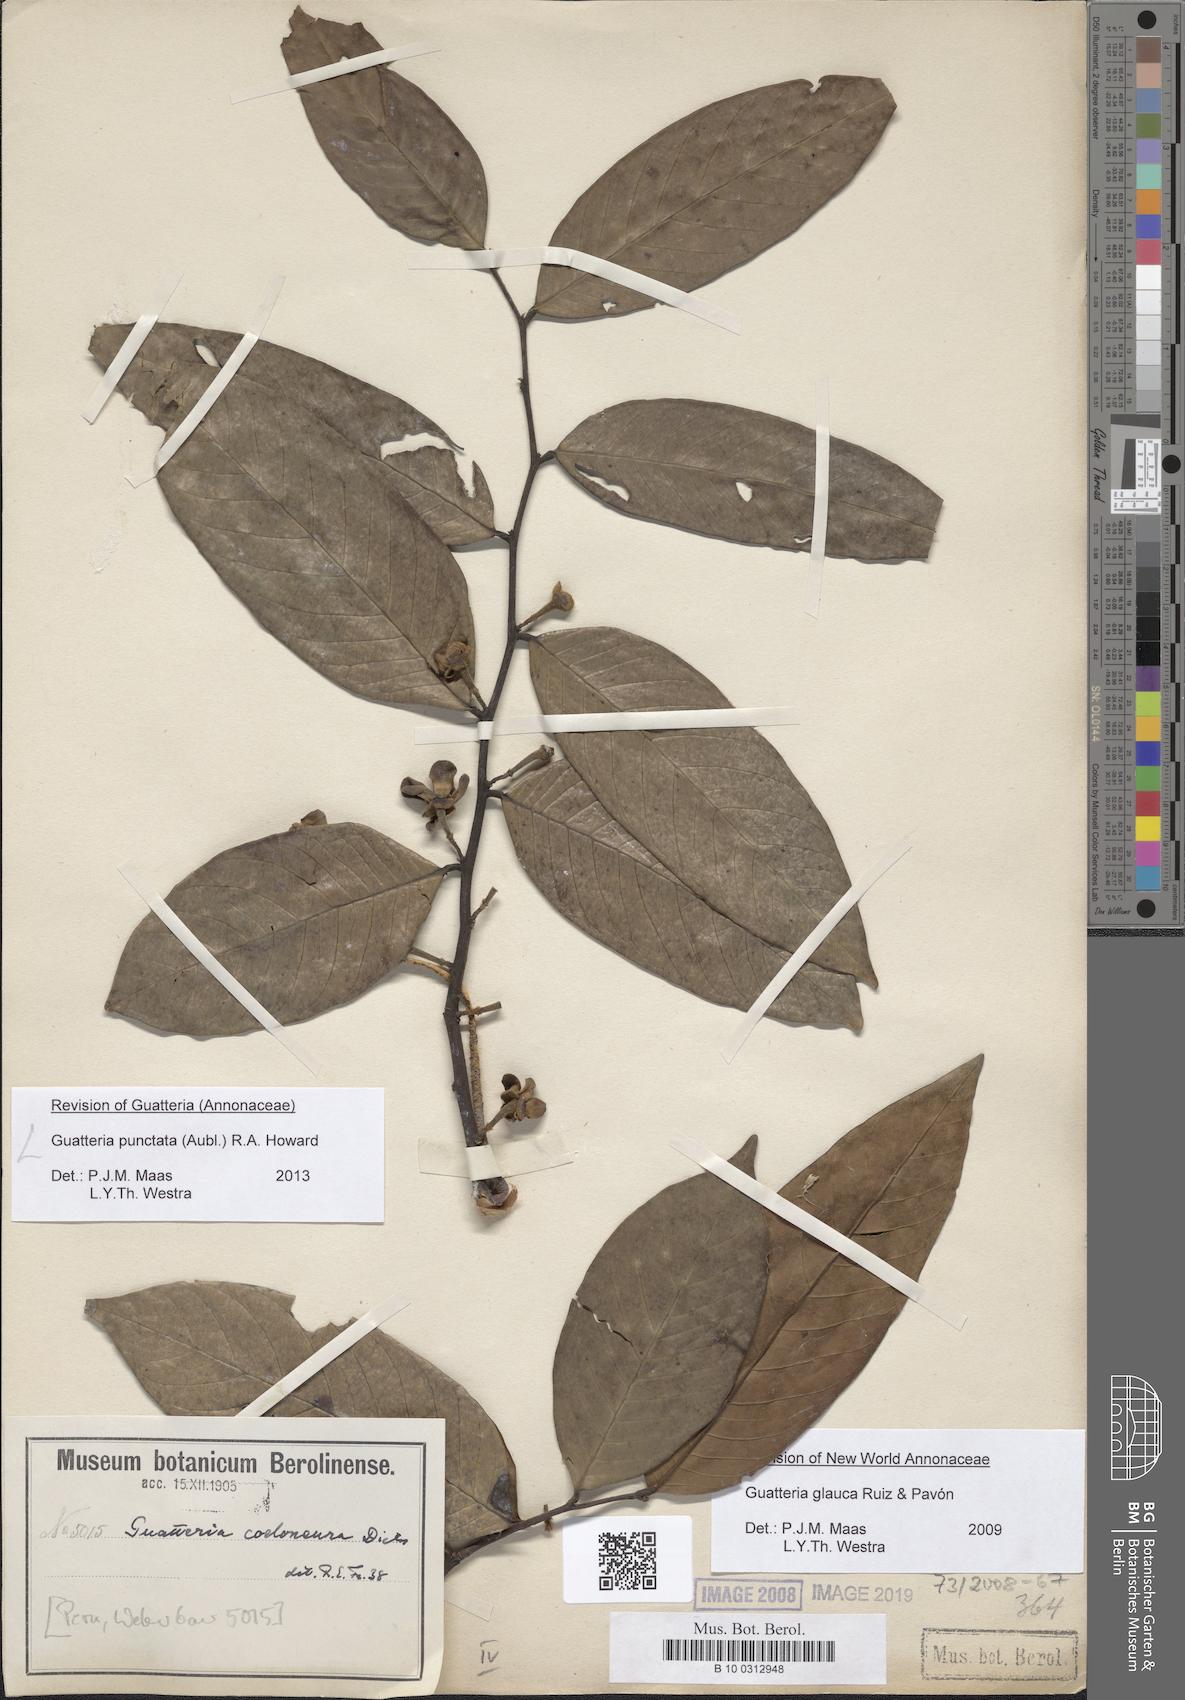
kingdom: Plantae
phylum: Tracheophyta
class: Magnoliopsida
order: Magnoliales
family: Annonaceae
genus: Guatteria
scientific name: Guatteria punctata
